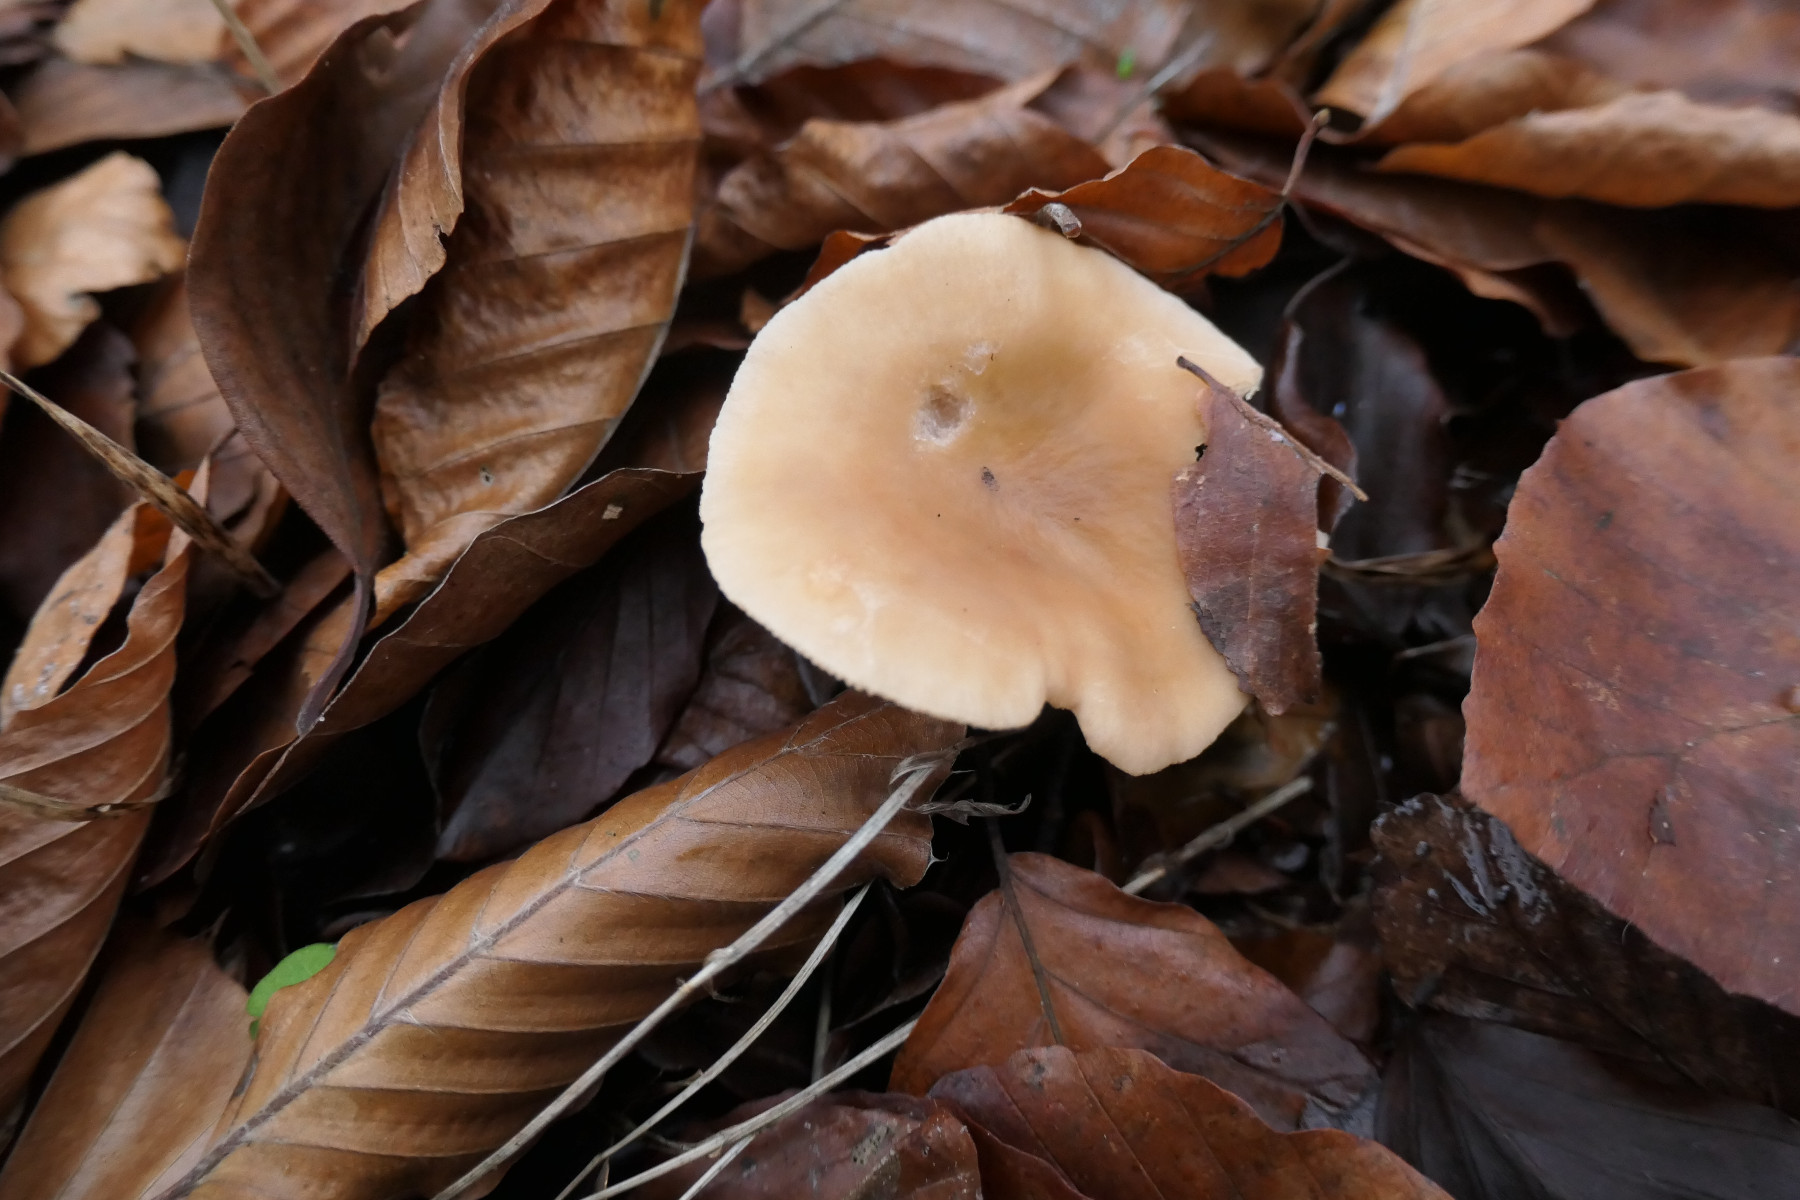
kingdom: Fungi
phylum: Basidiomycota
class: Agaricomycetes
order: Russulales
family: Russulaceae
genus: Lactarius
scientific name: Lactarius subdulcis
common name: sødlig mælkehat
